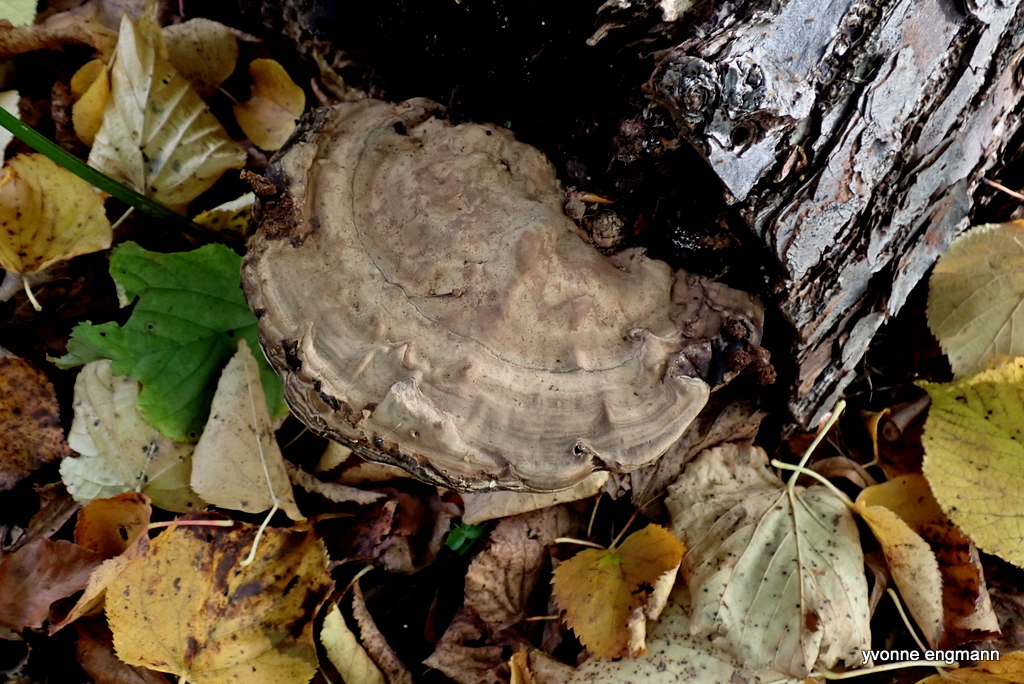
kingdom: Fungi
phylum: Basidiomycota
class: Agaricomycetes
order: Polyporales
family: Polyporaceae
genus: Fomes
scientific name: Fomes fomentarius
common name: tøndersvamp
